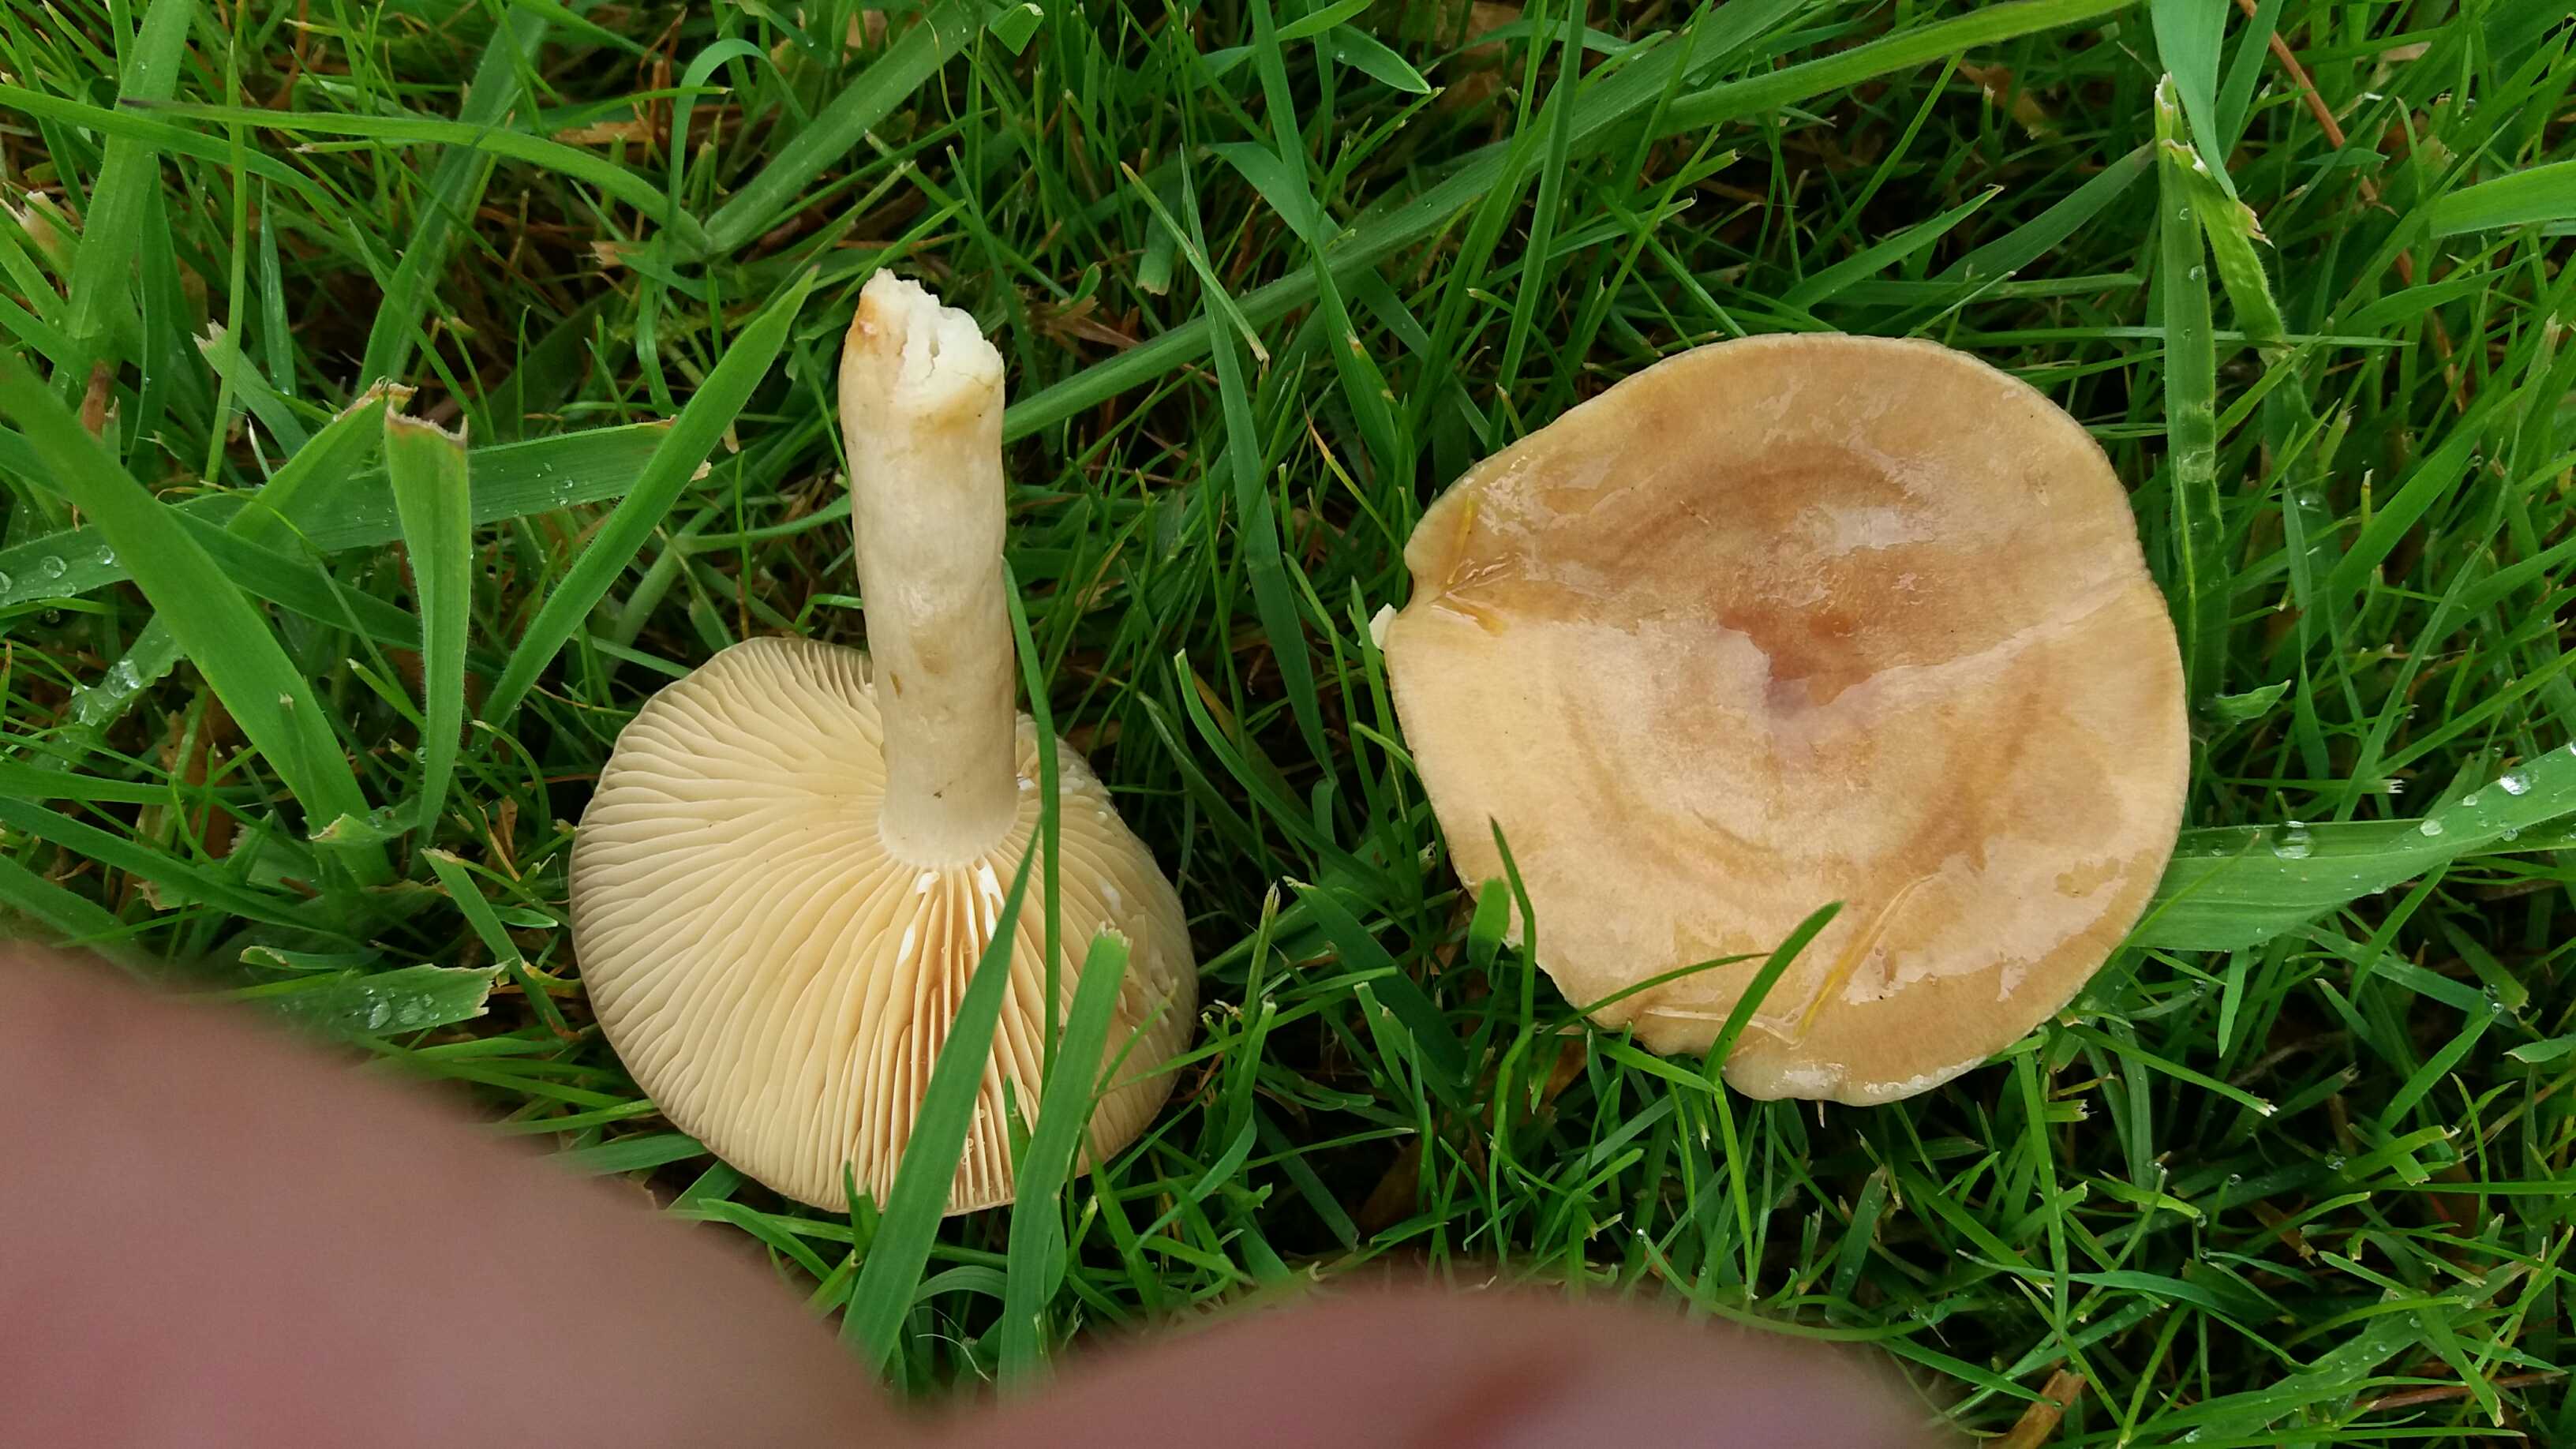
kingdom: Fungi
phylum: Basidiomycota
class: Agaricomycetes
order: Russulales
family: Russulaceae
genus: Lactarius
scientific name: Lactarius pyrogalus
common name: hassel-mælkehat
